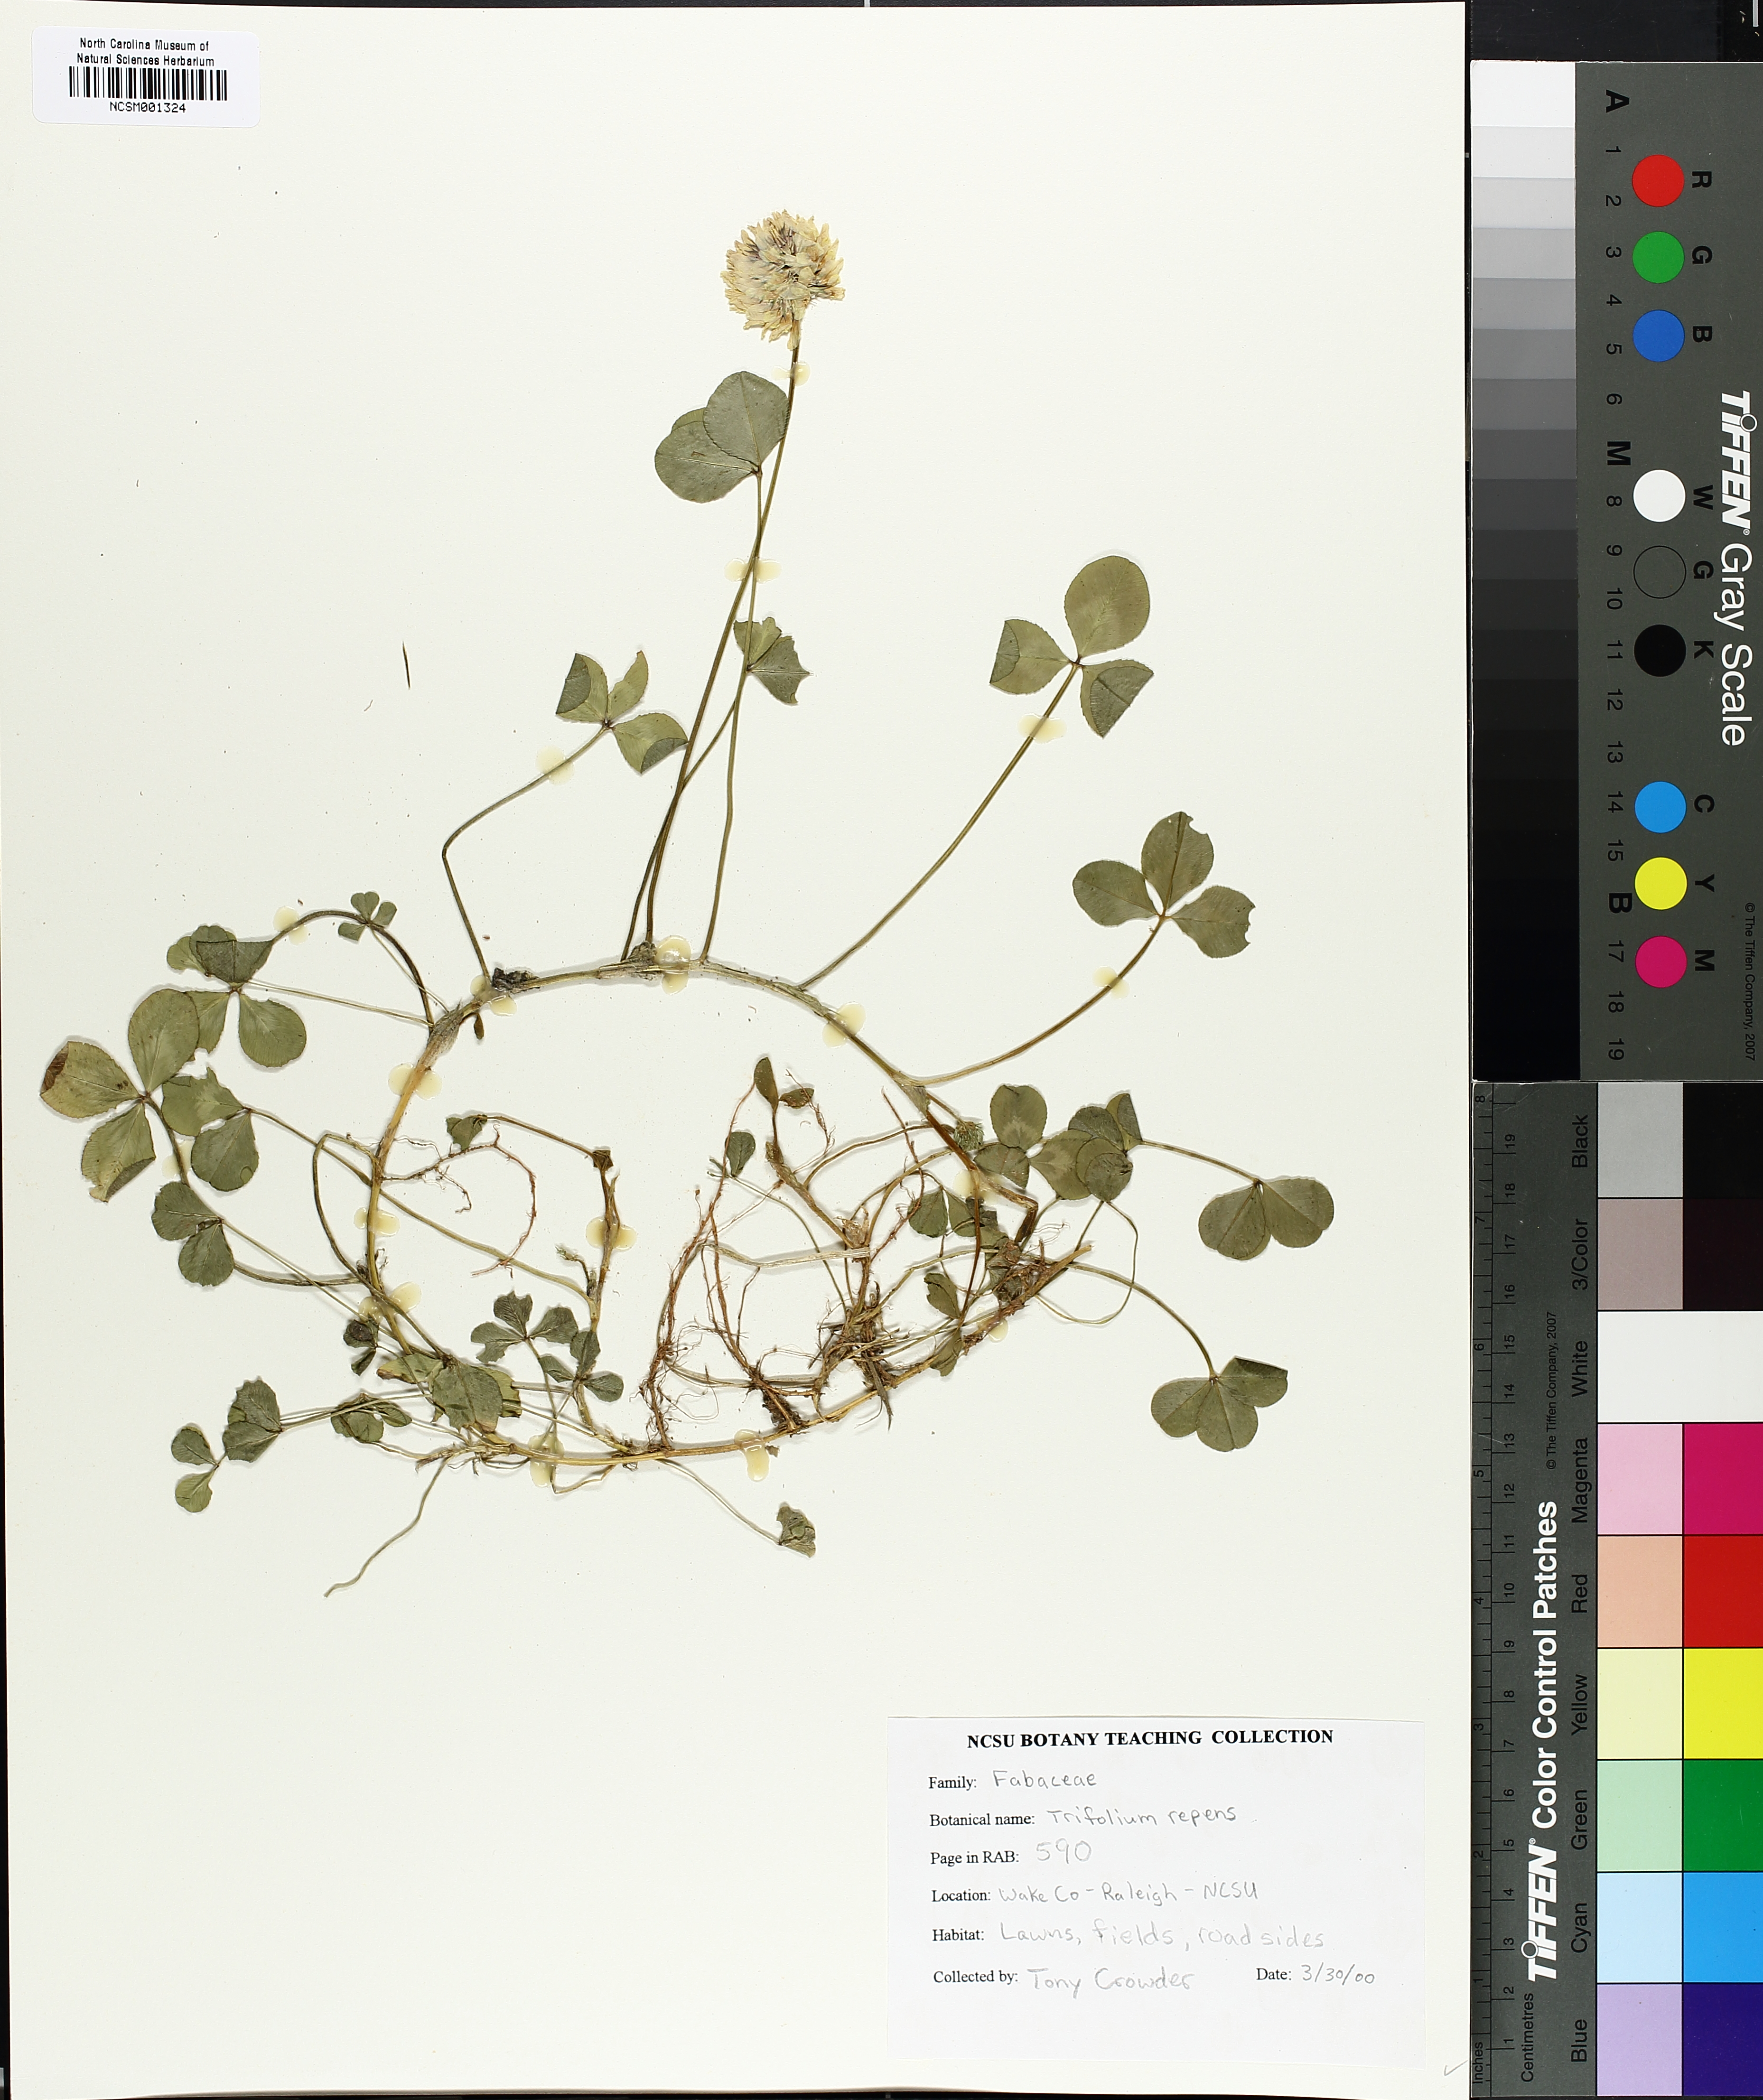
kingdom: Plantae
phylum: Tracheophyta
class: Magnoliopsida
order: Fabales
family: Fabaceae
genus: Trifolium
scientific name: Trifolium repens
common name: White clover
